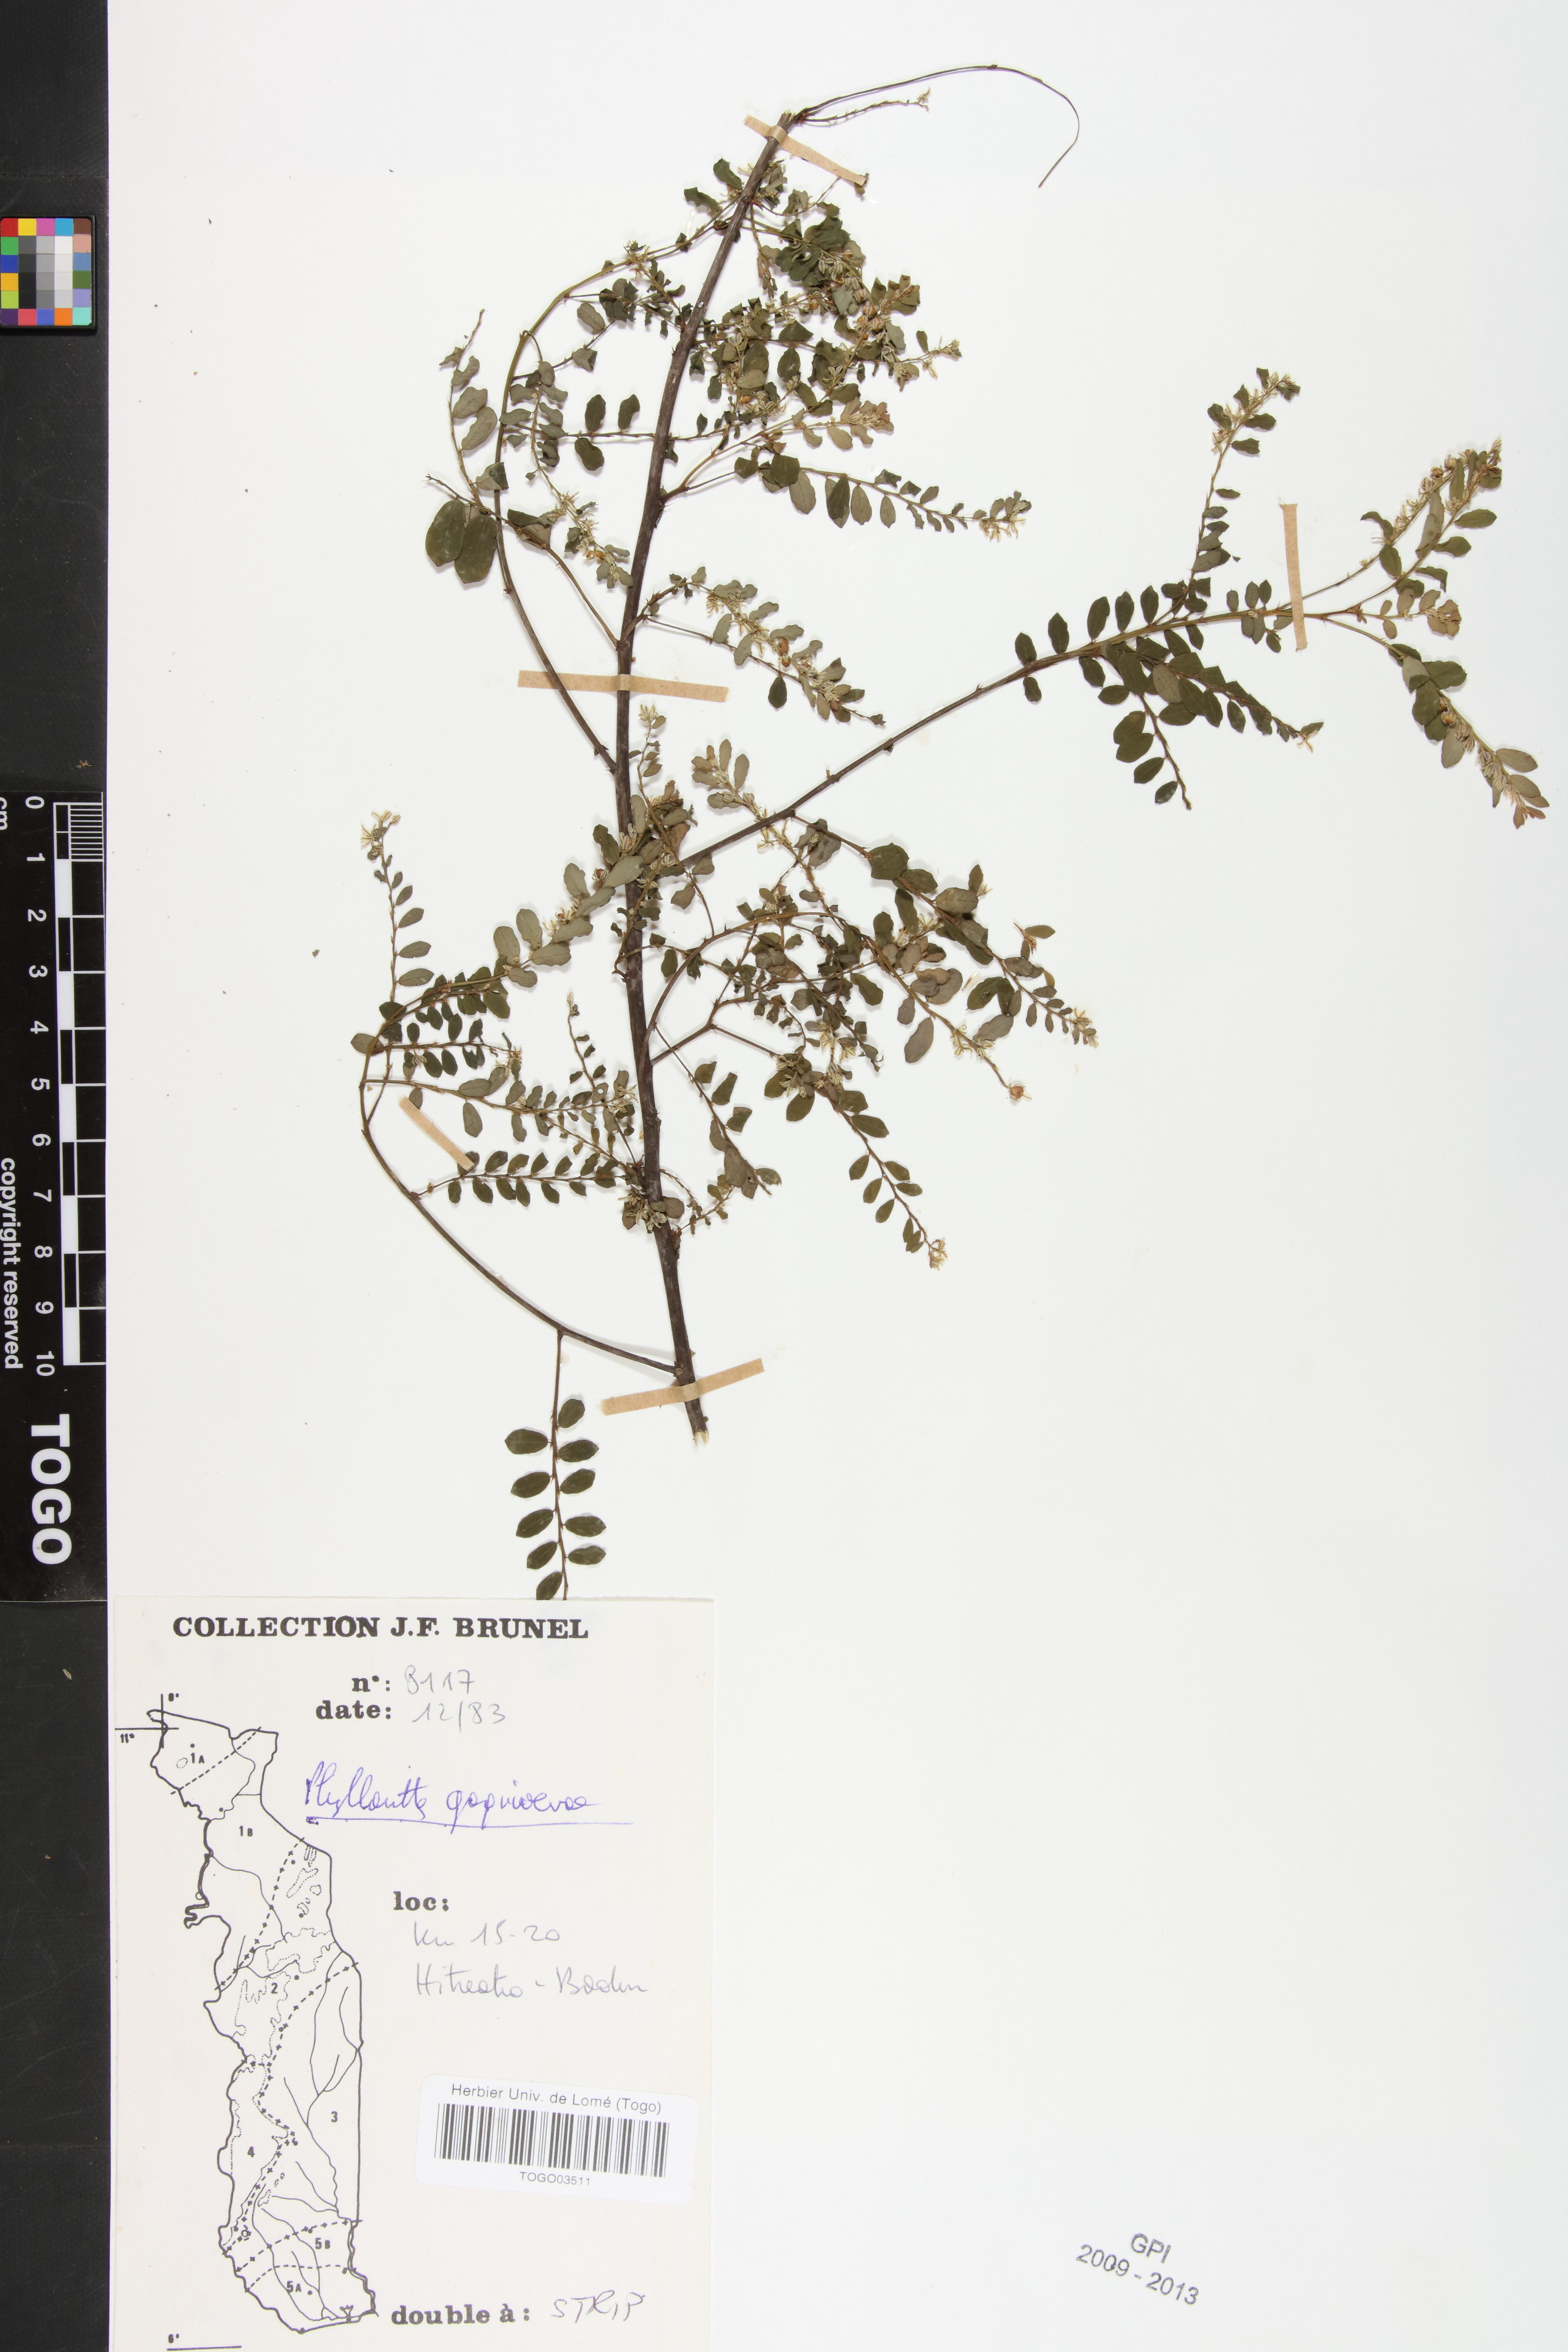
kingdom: Plantae
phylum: Tracheophyta
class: Magnoliopsida
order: Malpighiales
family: Phyllanthaceae
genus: Phyllanthus
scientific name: Phyllanthus gagnioevae
